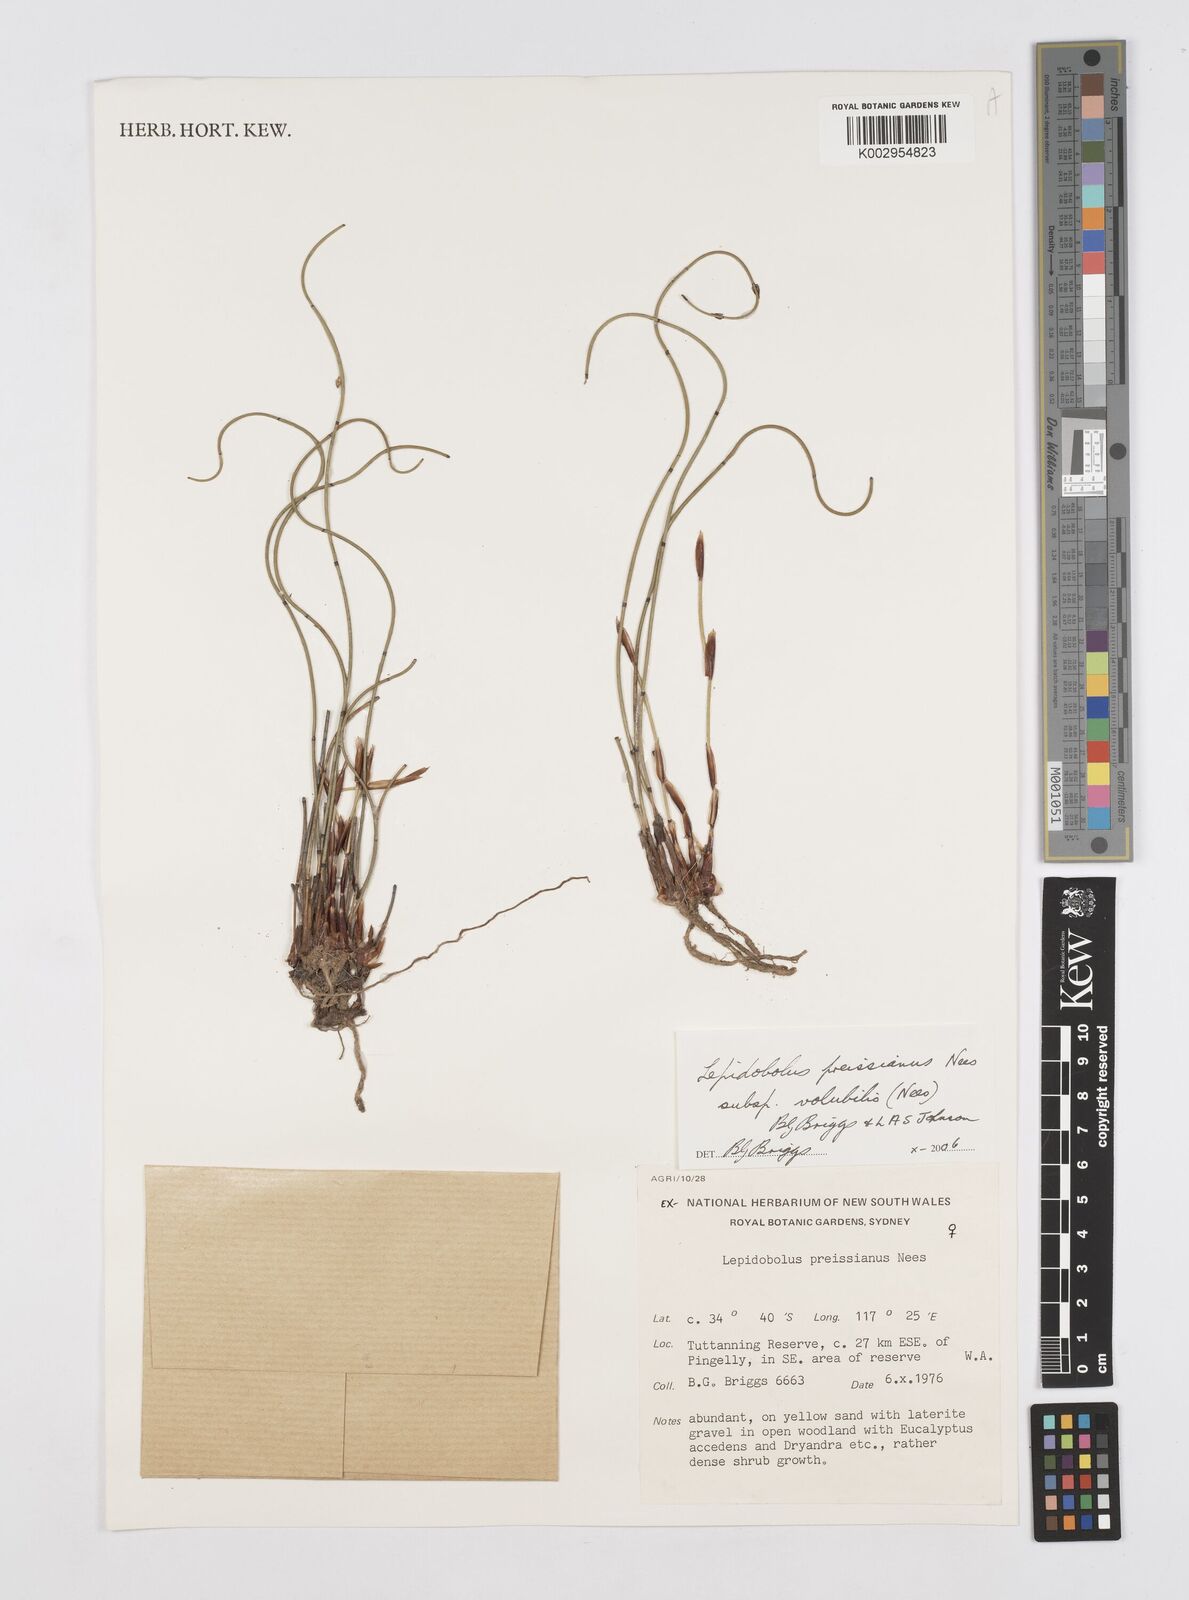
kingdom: Plantae
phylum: Tracheophyta
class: Liliopsida
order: Poales
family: Restionaceae
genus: Lepidobolus
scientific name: Lepidobolus preissianus
